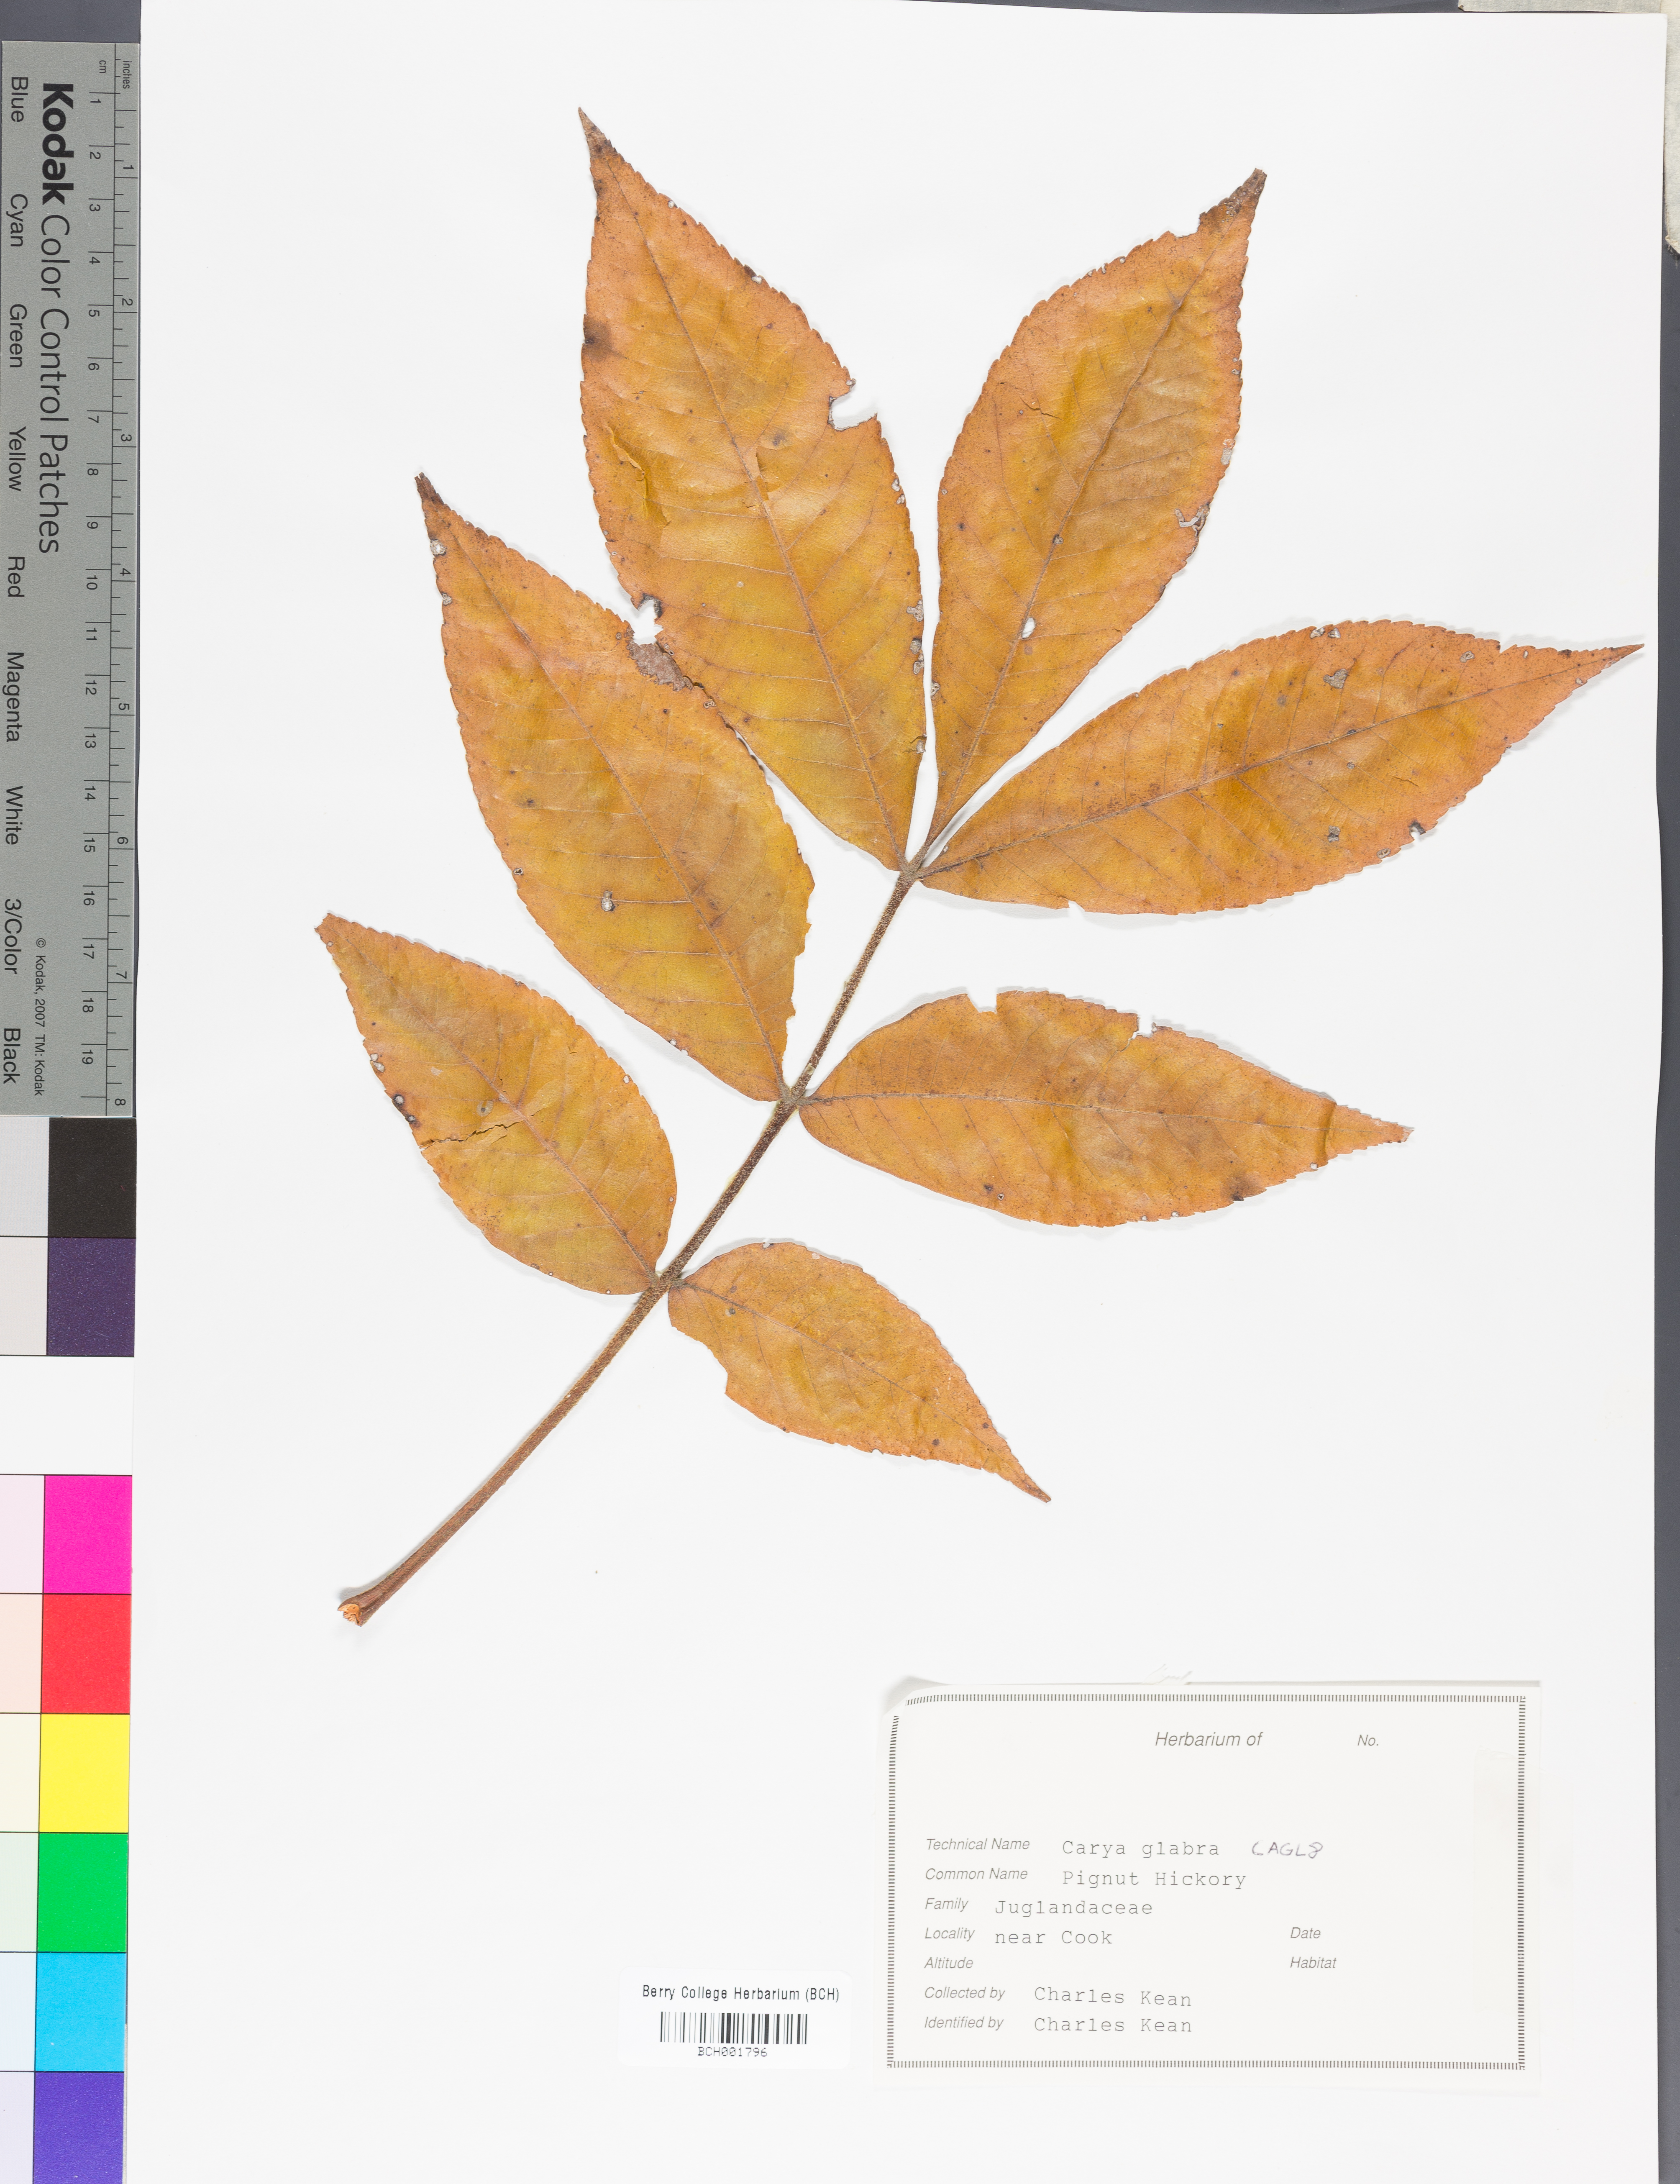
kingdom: Plantae
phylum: Tracheophyta
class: Magnoliopsida
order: Fagales
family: Juglandaceae
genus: Carya
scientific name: Carya glabra
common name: Pignut hickory
